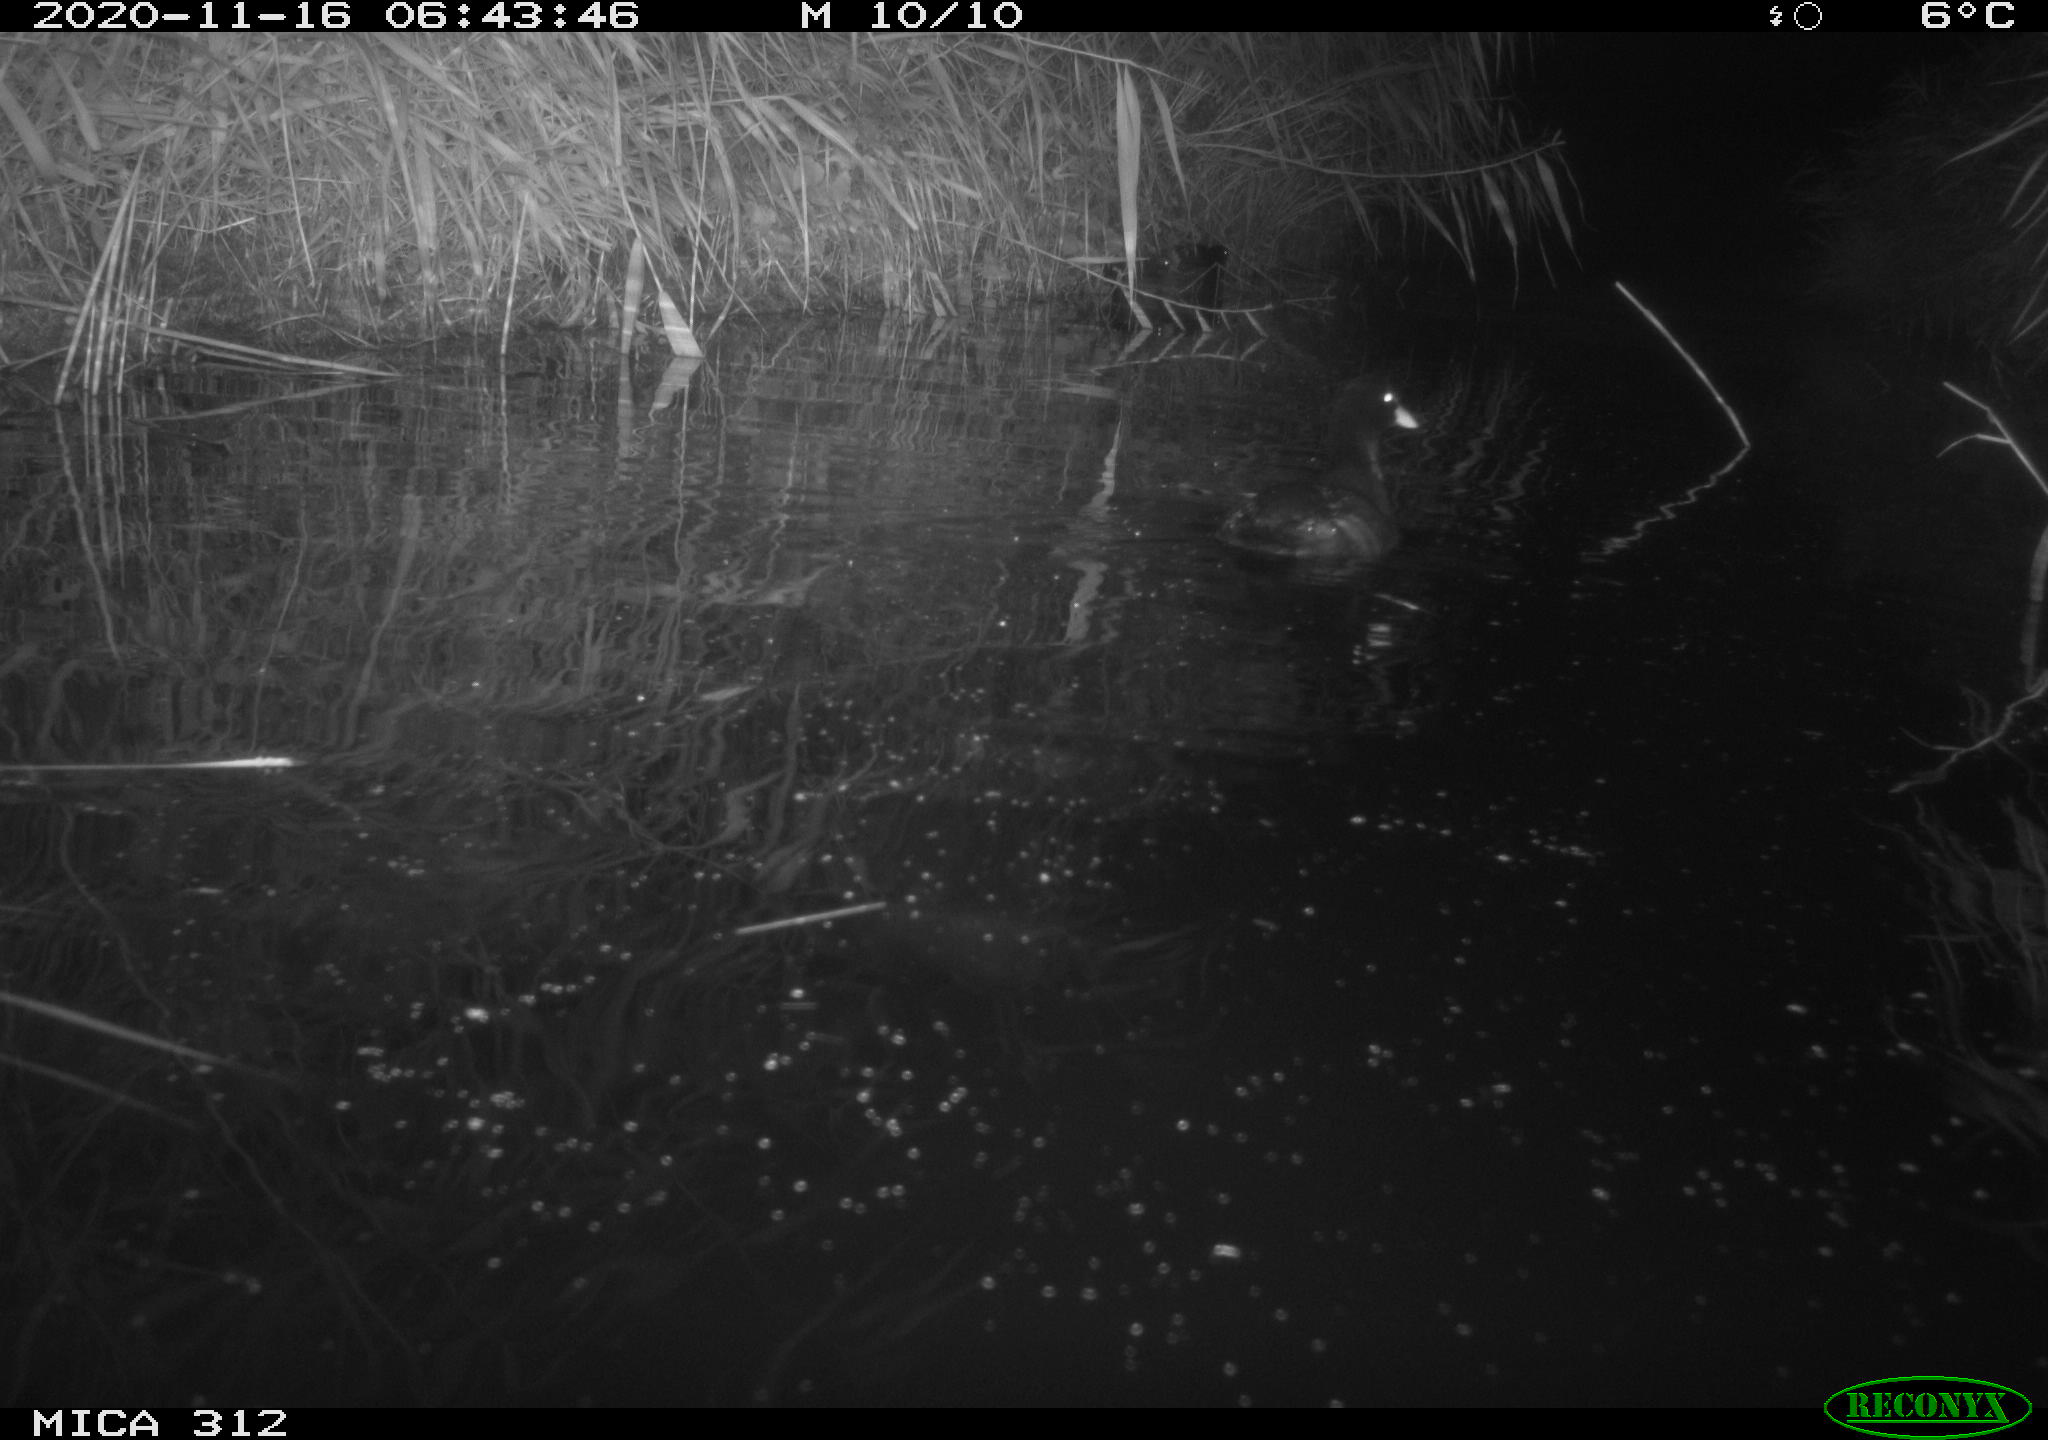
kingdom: Animalia
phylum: Chordata
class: Aves
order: Gruiformes
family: Rallidae
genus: Fulica
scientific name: Fulica atra
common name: Eurasian coot
